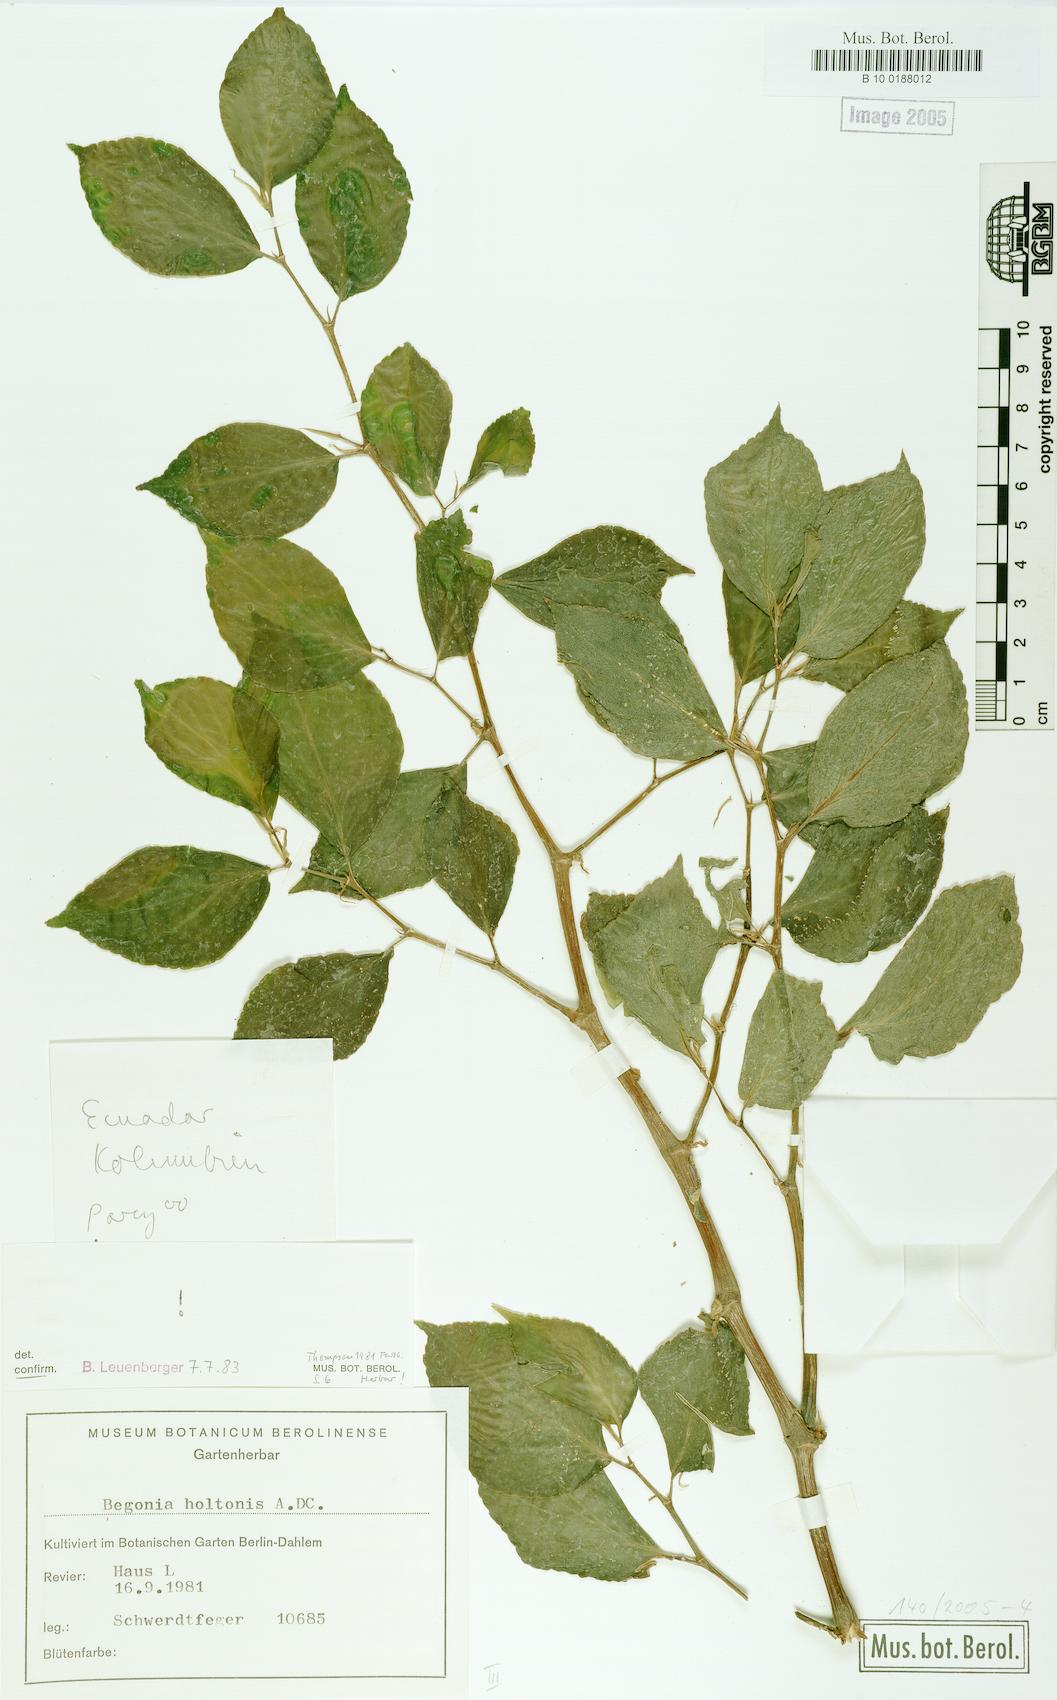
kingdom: Plantae
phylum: Tracheophyta
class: Magnoliopsida
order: Cucurbitales
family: Begoniaceae
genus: Begonia
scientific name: Begonia holtonis
